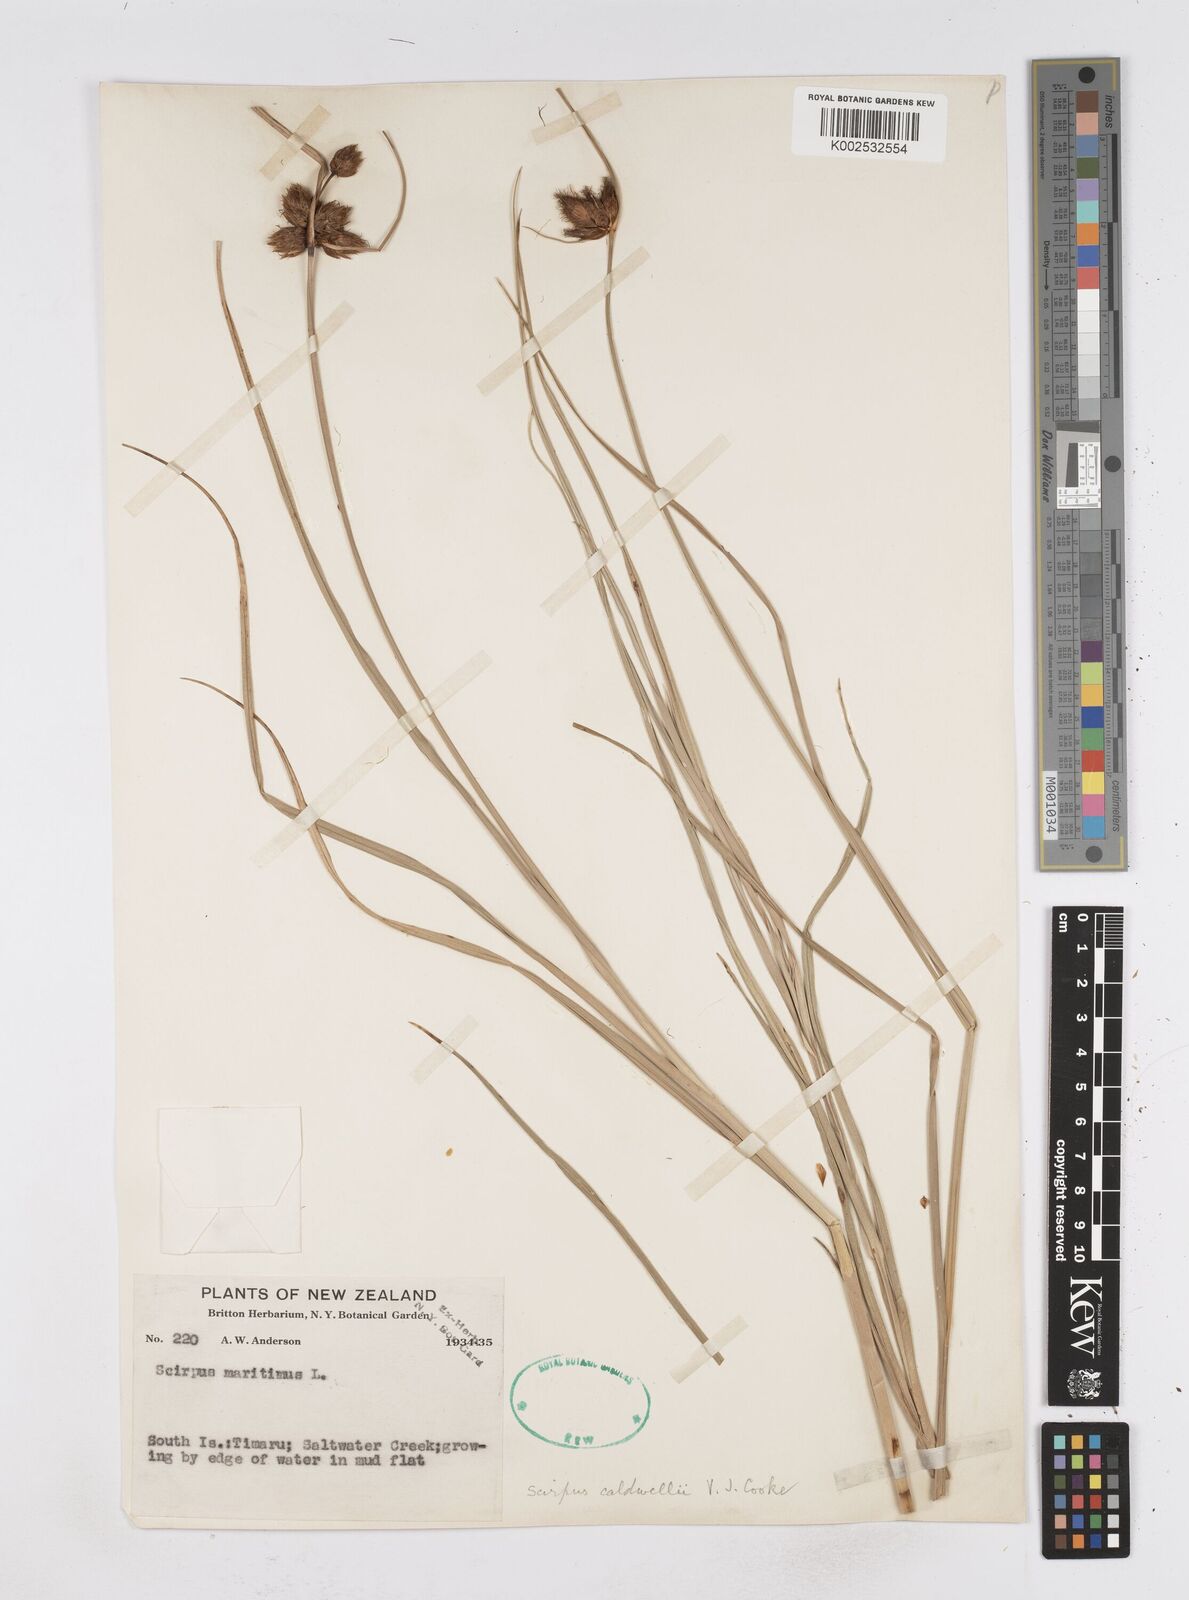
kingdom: Plantae
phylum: Tracheophyta
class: Liliopsida
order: Poales
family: Cyperaceae
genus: Bolboschoenus
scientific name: Bolboschoenus maritimus
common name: Sea club-rush
